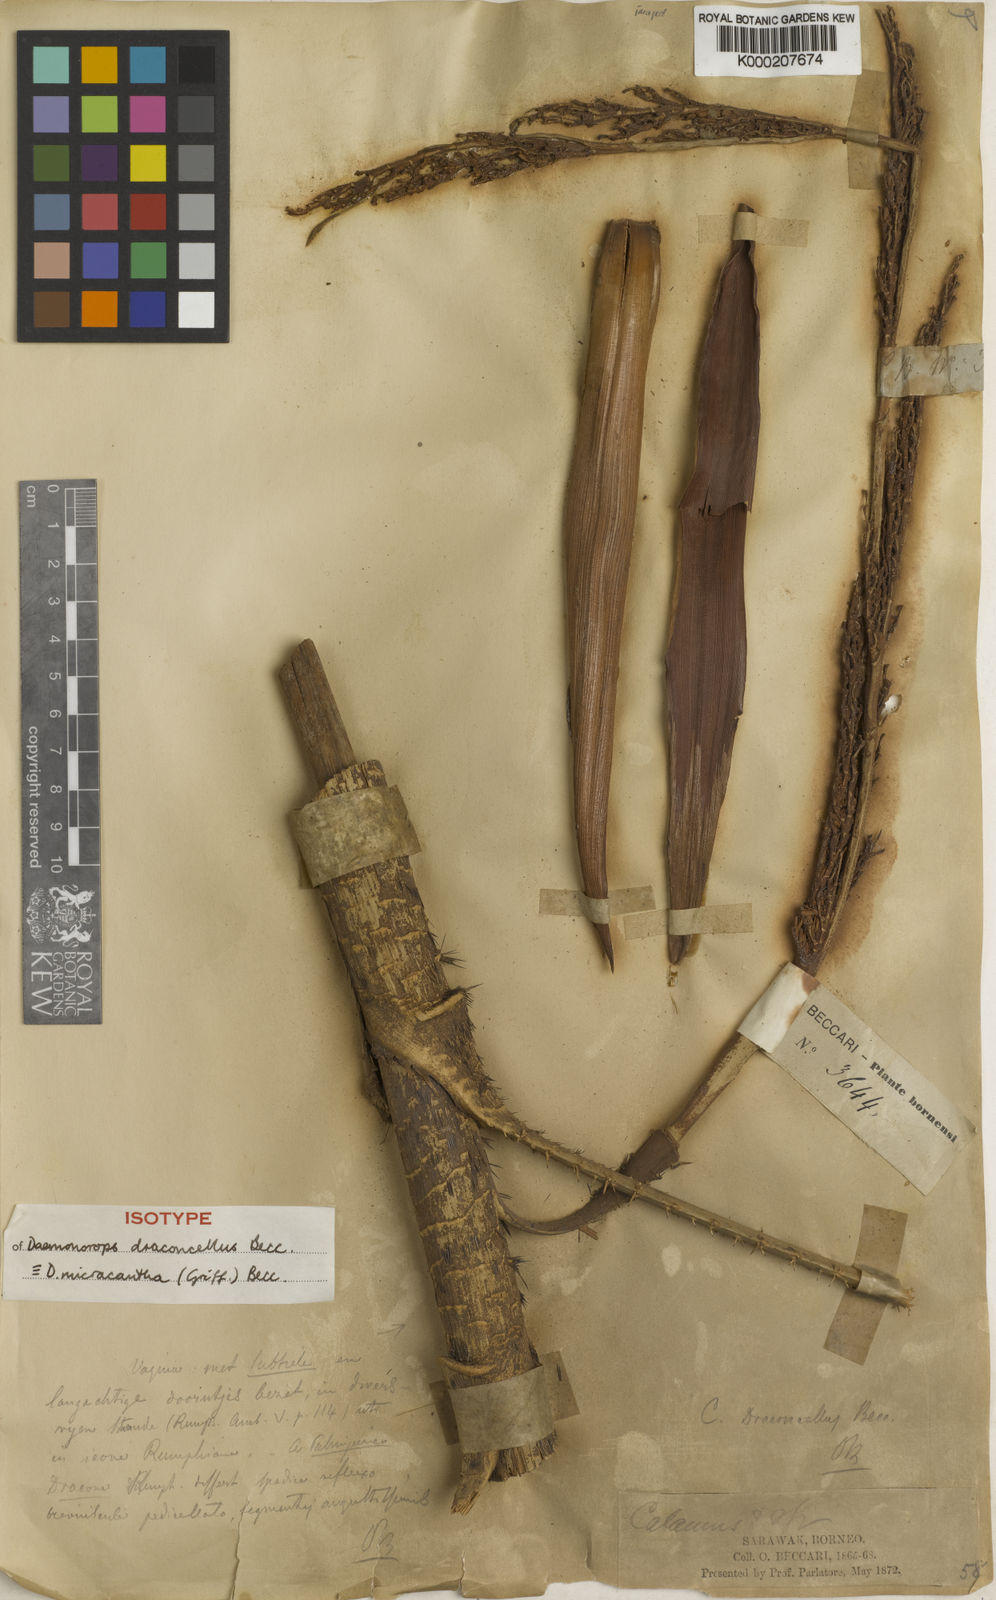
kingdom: Plantae
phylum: Tracheophyta
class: Liliopsida
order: Arecales
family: Arecaceae
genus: Calamus
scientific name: Calamus micracanthus
